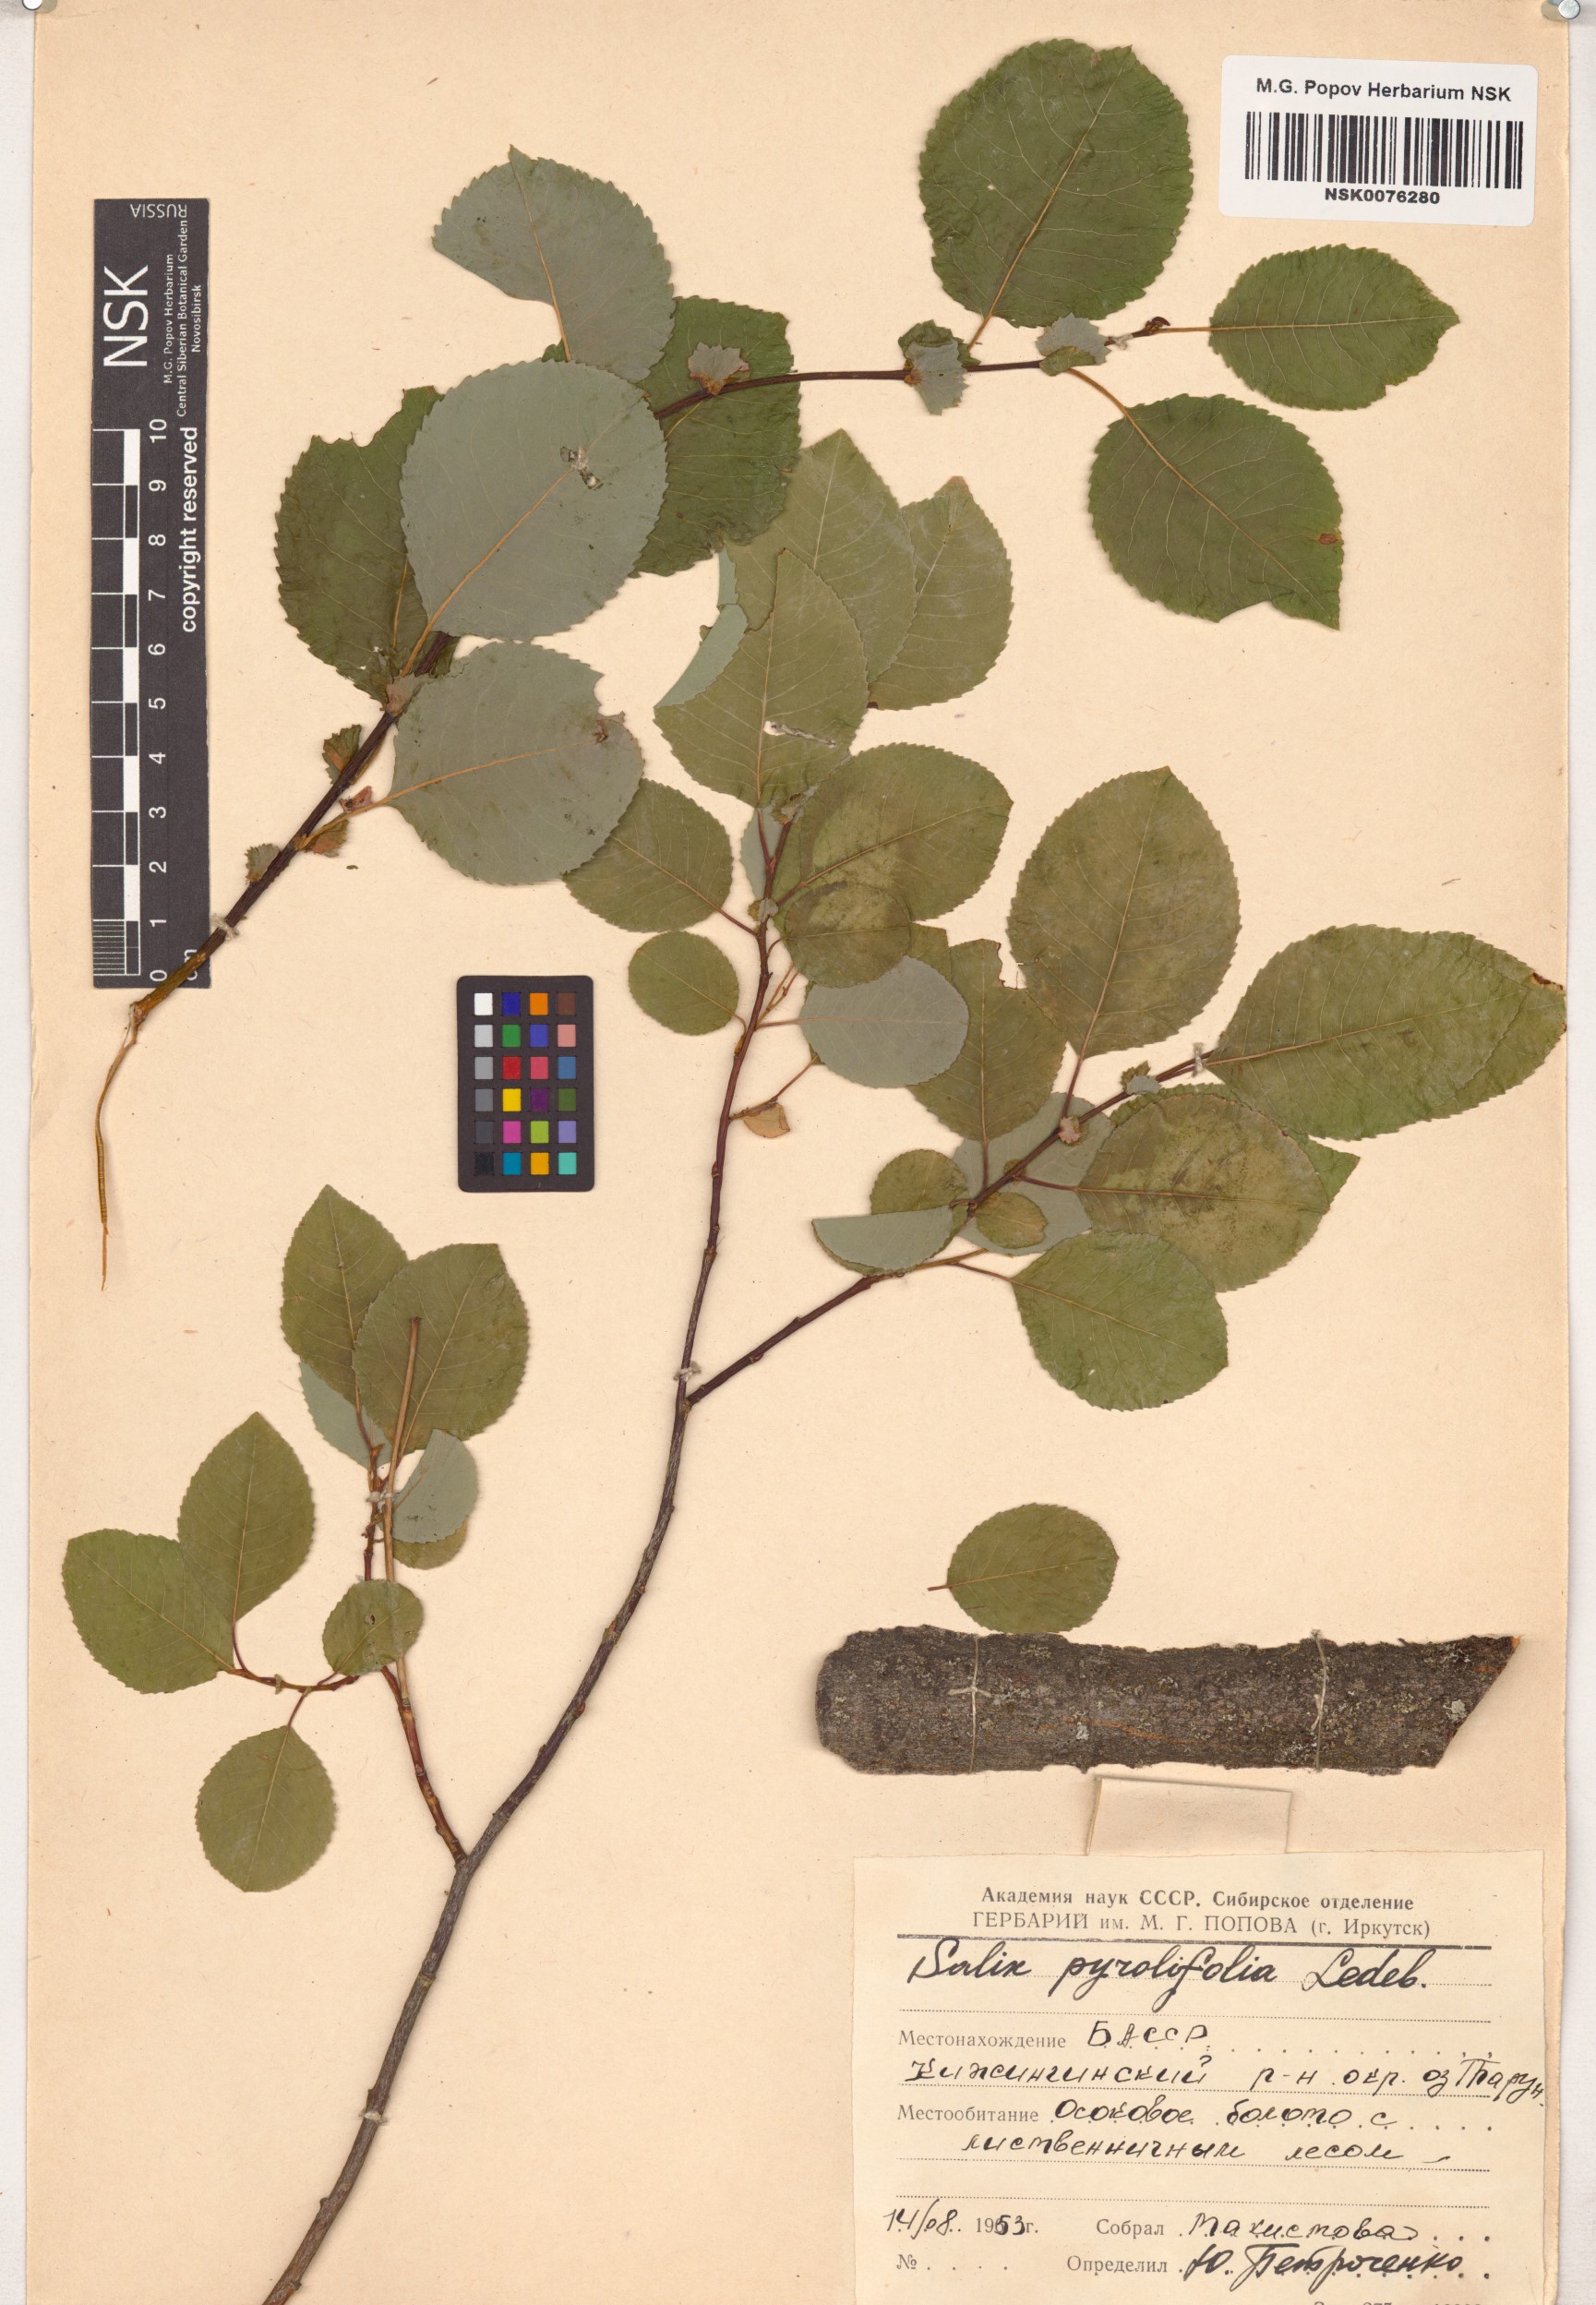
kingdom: Plantae
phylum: Tracheophyta
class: Magnoliopsida
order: Malpighiales
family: Salicaceae
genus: Salix
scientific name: Salix pyrolifolia
